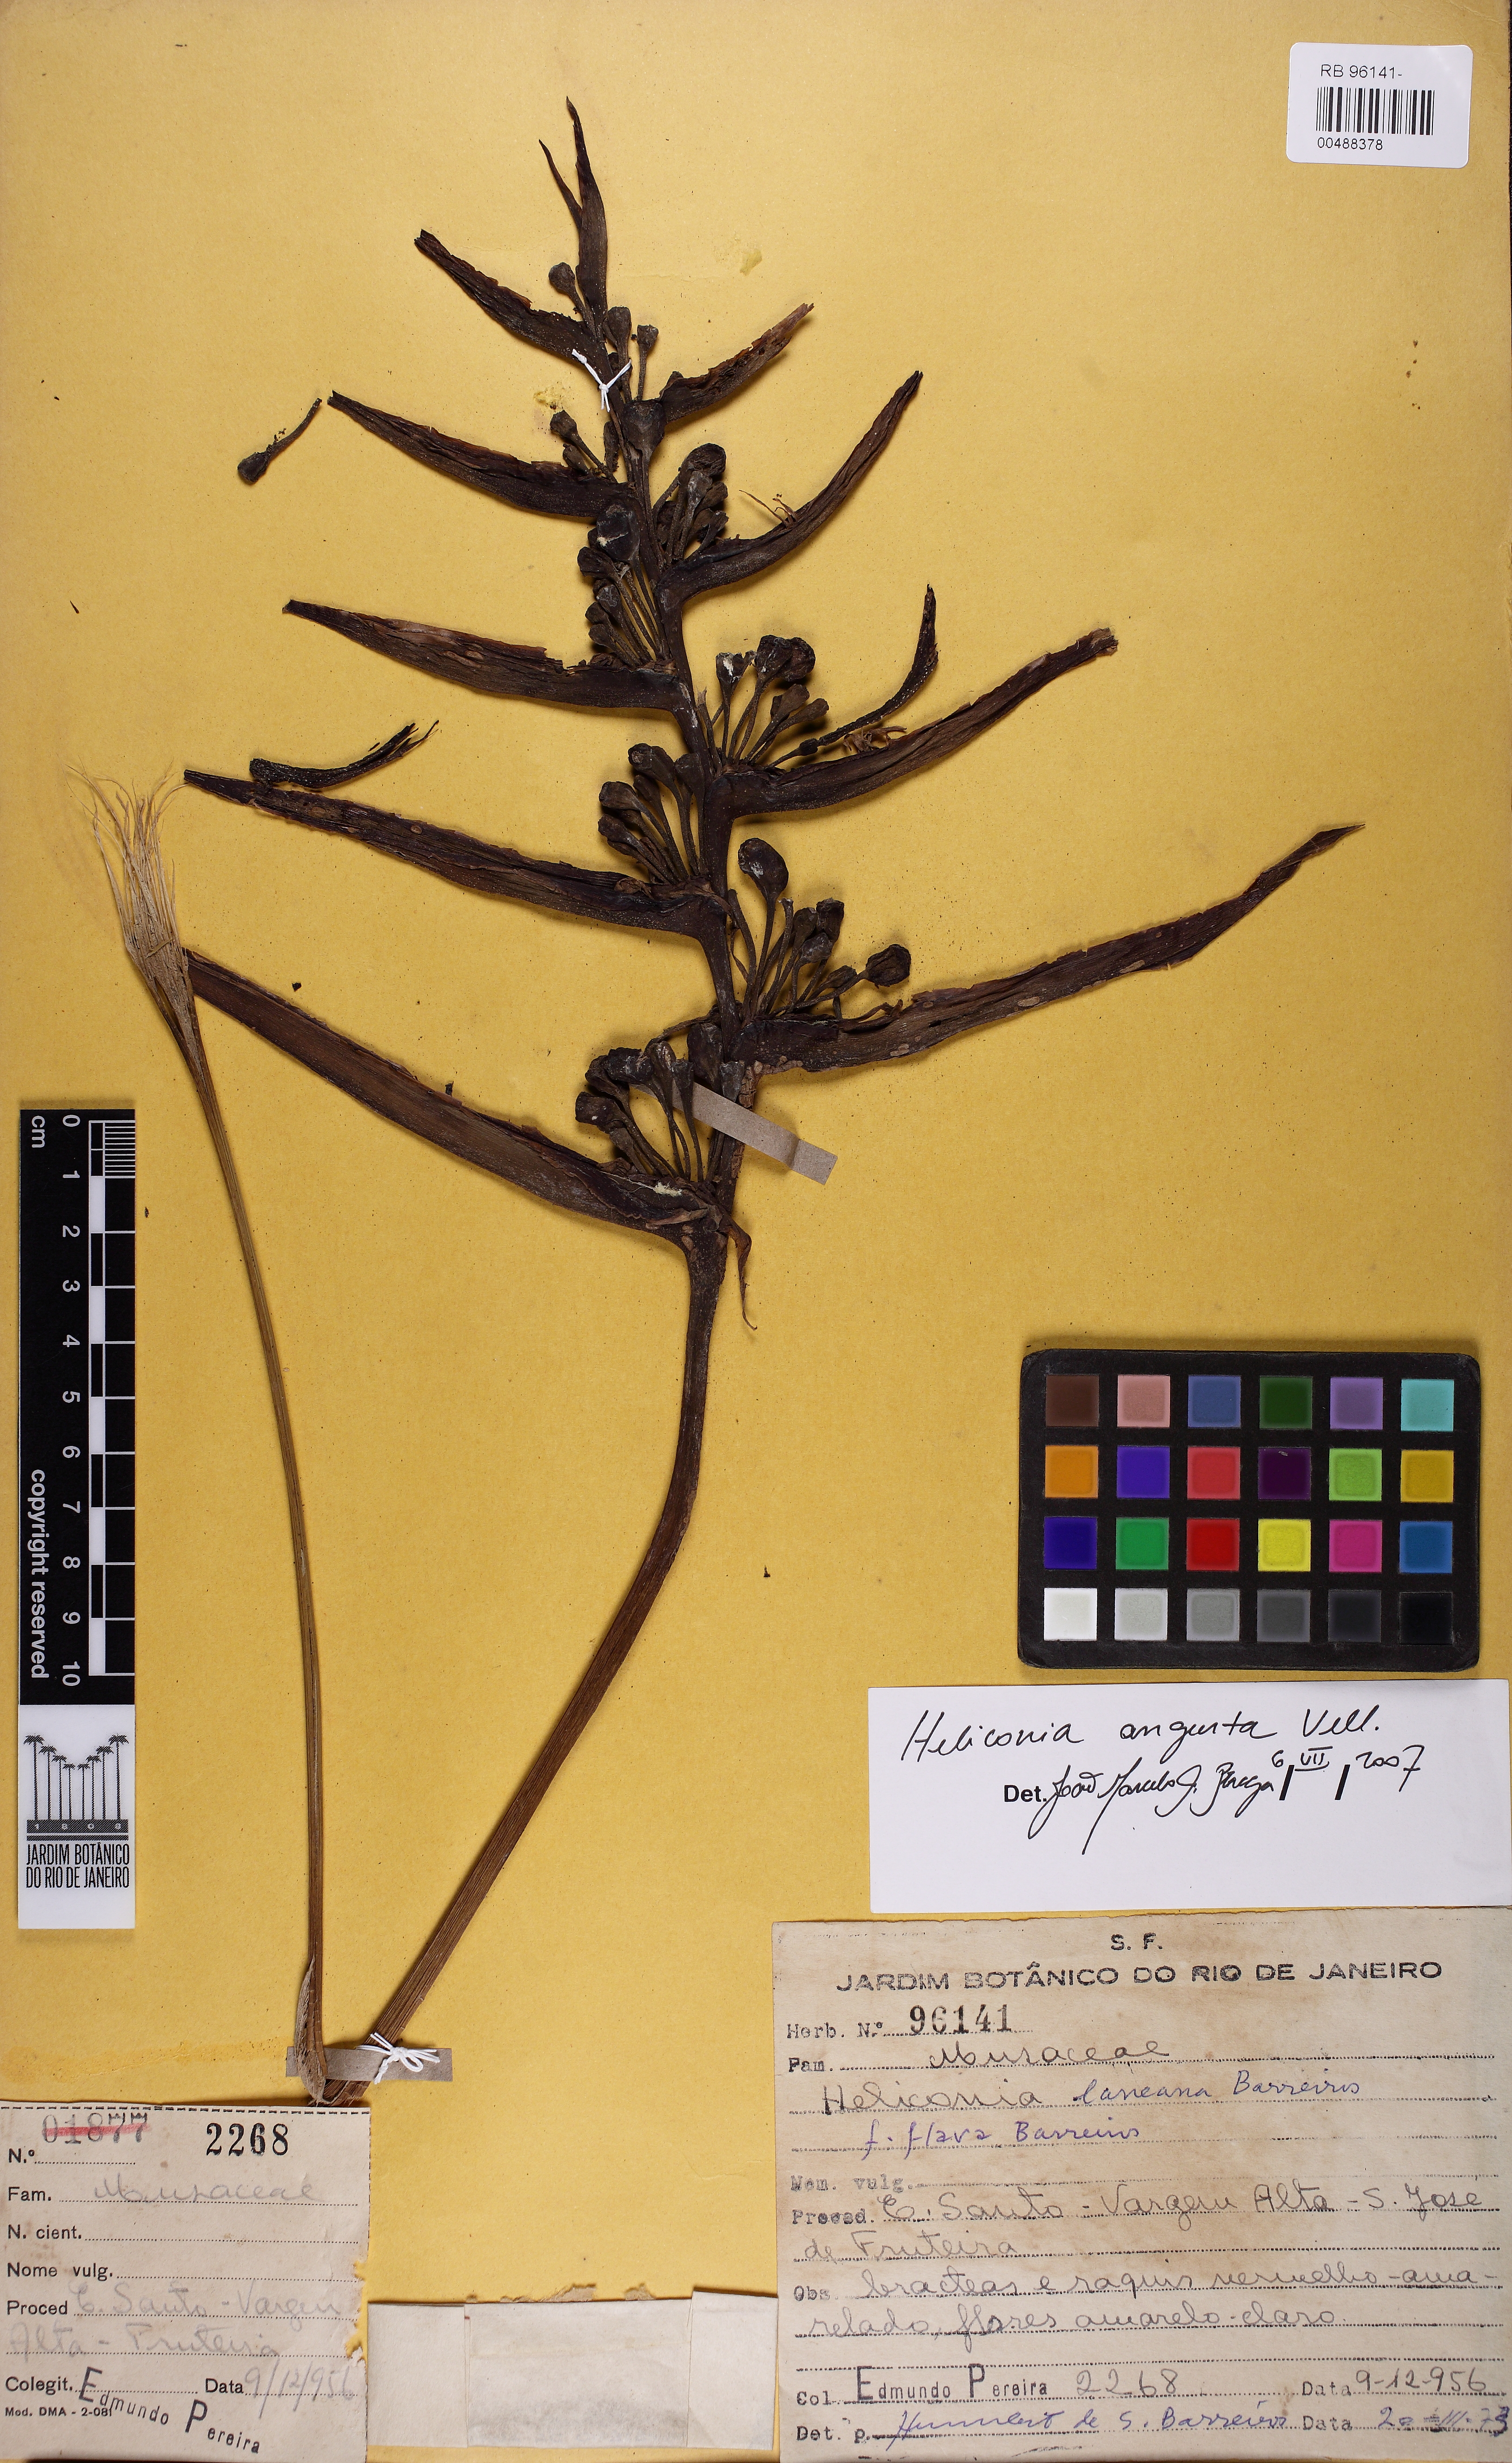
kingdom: Plantae
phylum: Tracheophyta
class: Liliopsida
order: Zingiberales
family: Heliconiaceae
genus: Heliconia
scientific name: Heliconia angusta
